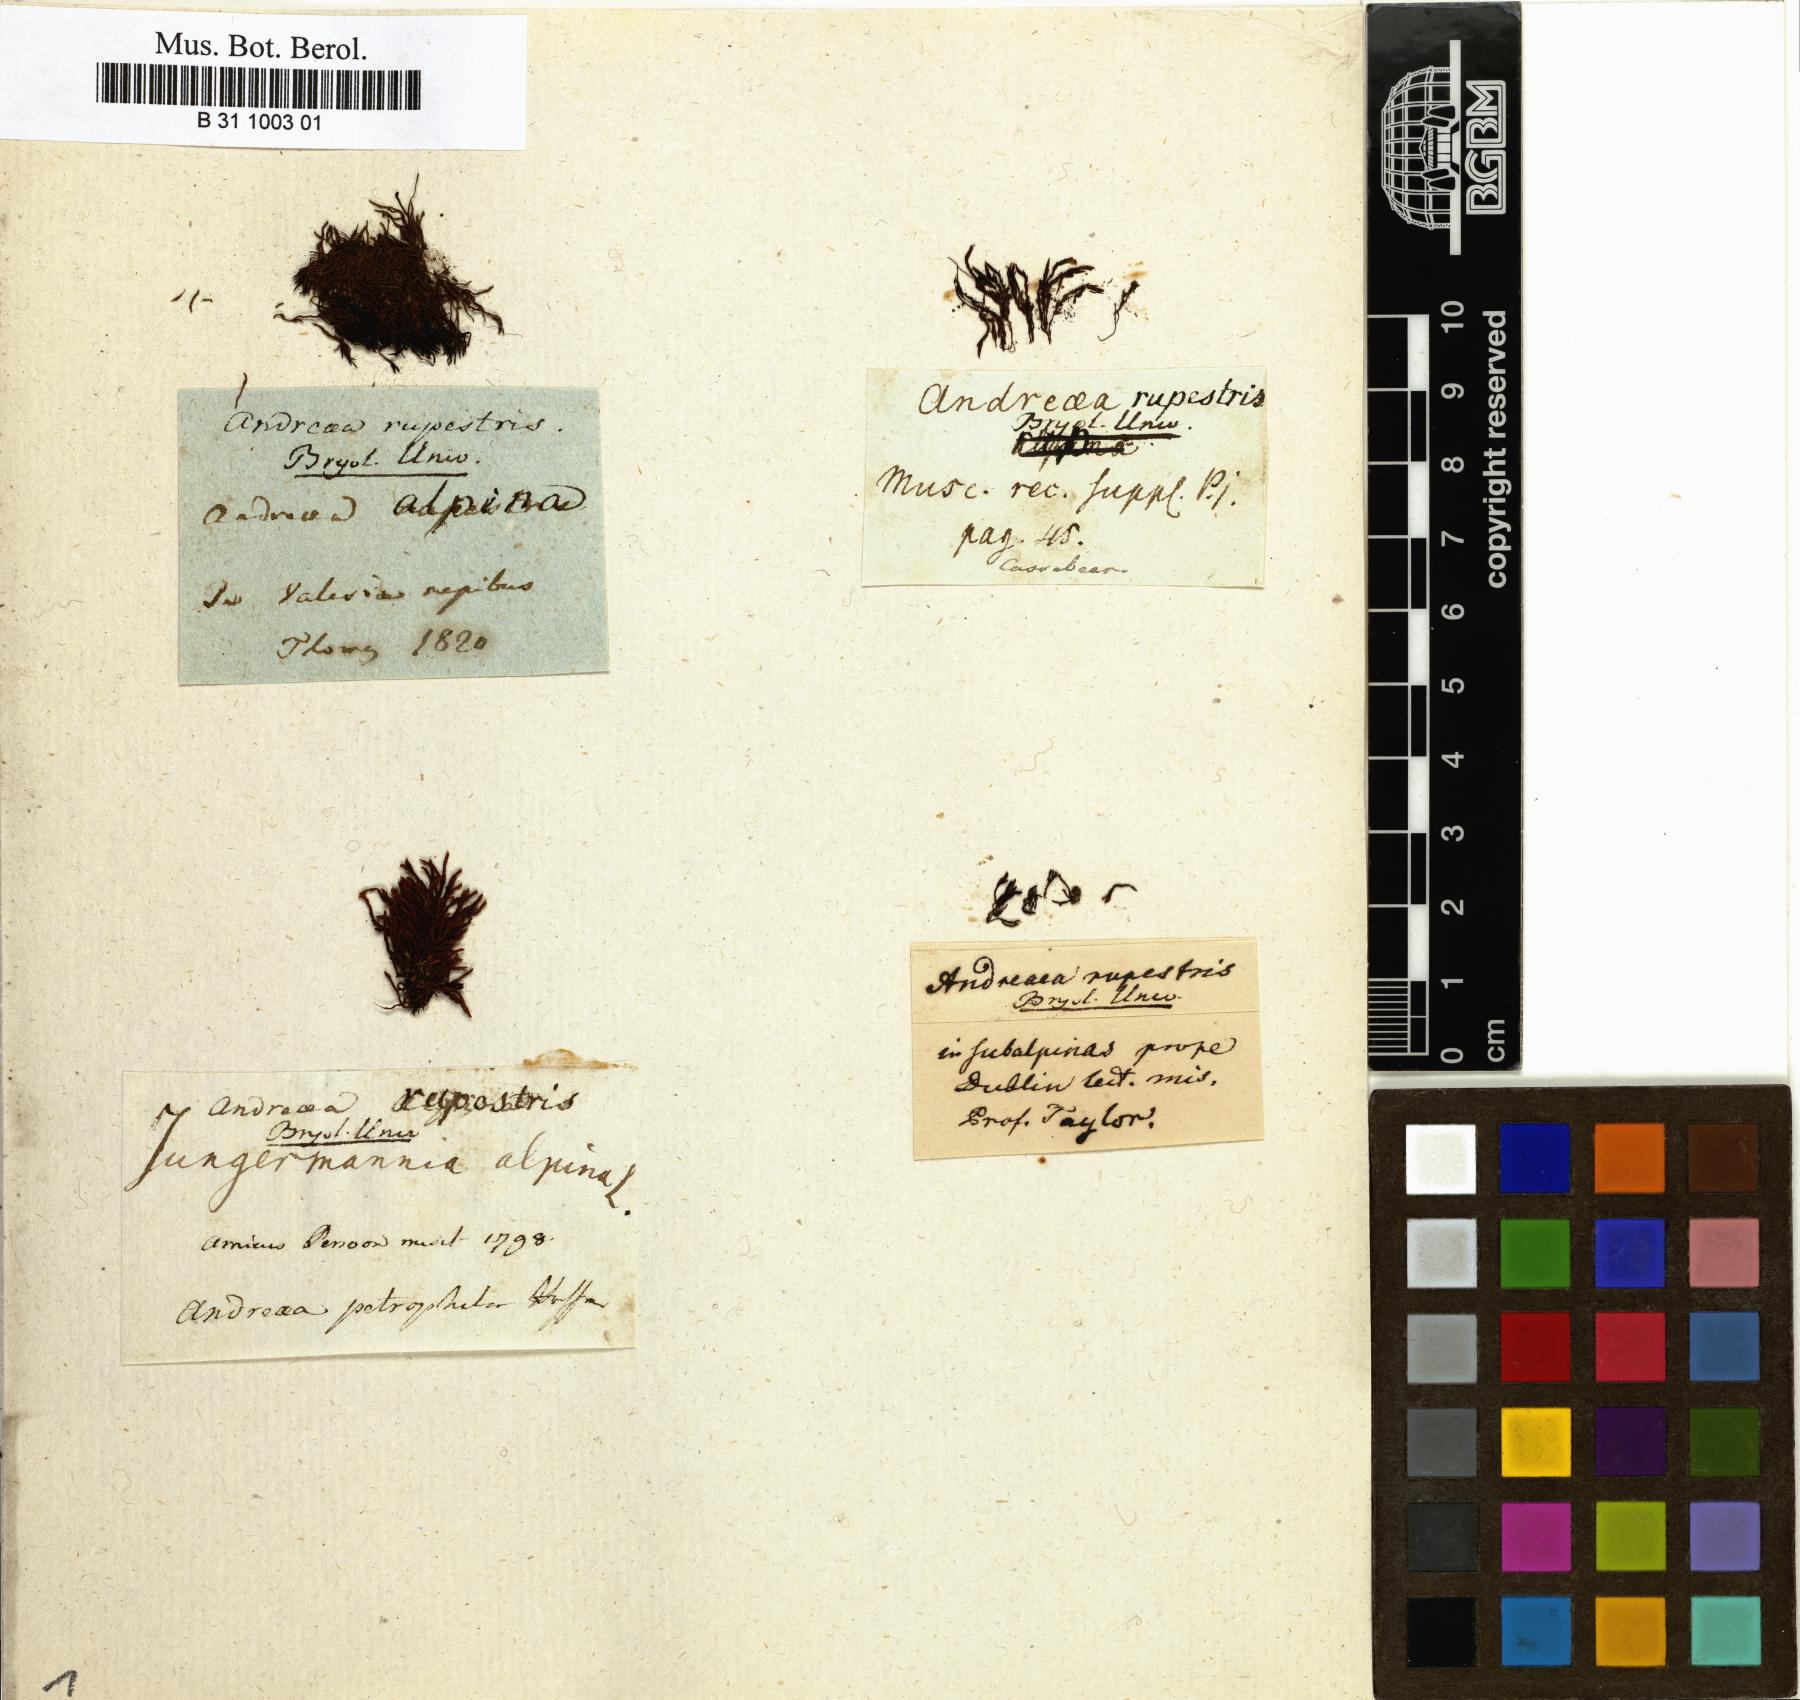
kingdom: Plantae
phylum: Bryophyta
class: Andreaeopsida
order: Andreaeales
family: Andreaeaceae
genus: Andreaea
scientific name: Andreaea rupestris
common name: Black rock moss
